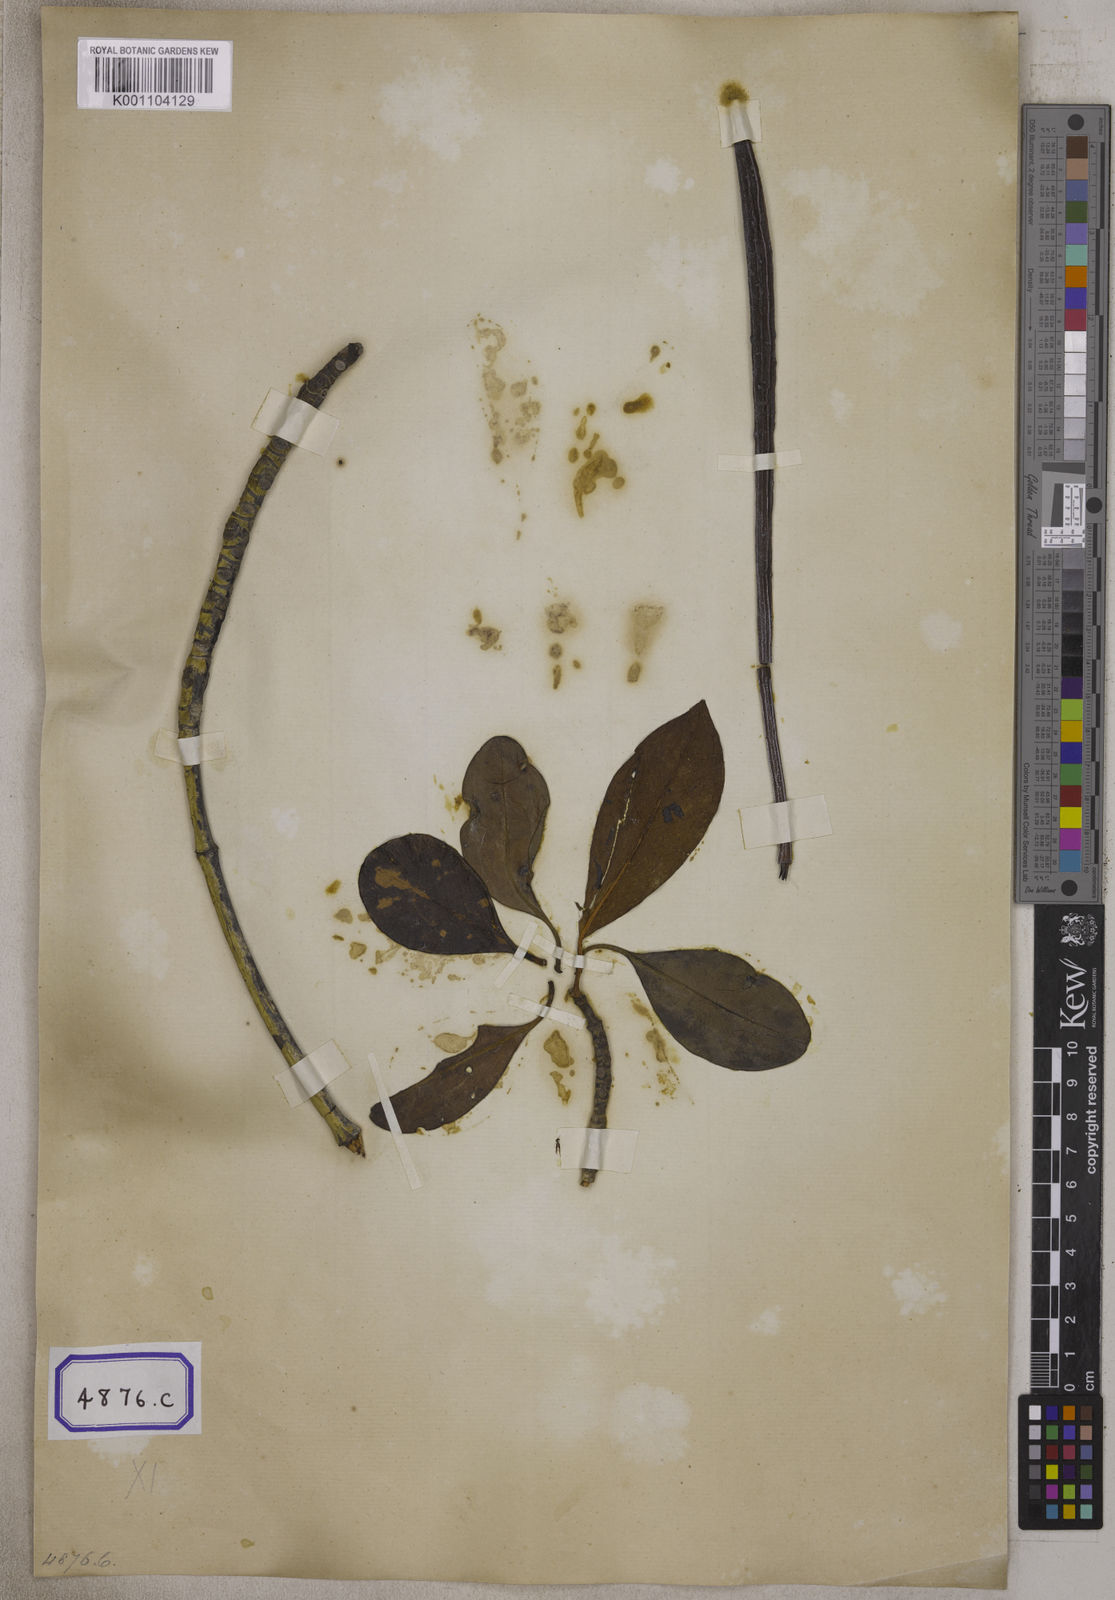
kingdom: Plantae
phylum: Tracheophyta
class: Magnoliopsida
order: Malpighiales
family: Rhizophoraceae
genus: Kandelia
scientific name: Kandelia candel
